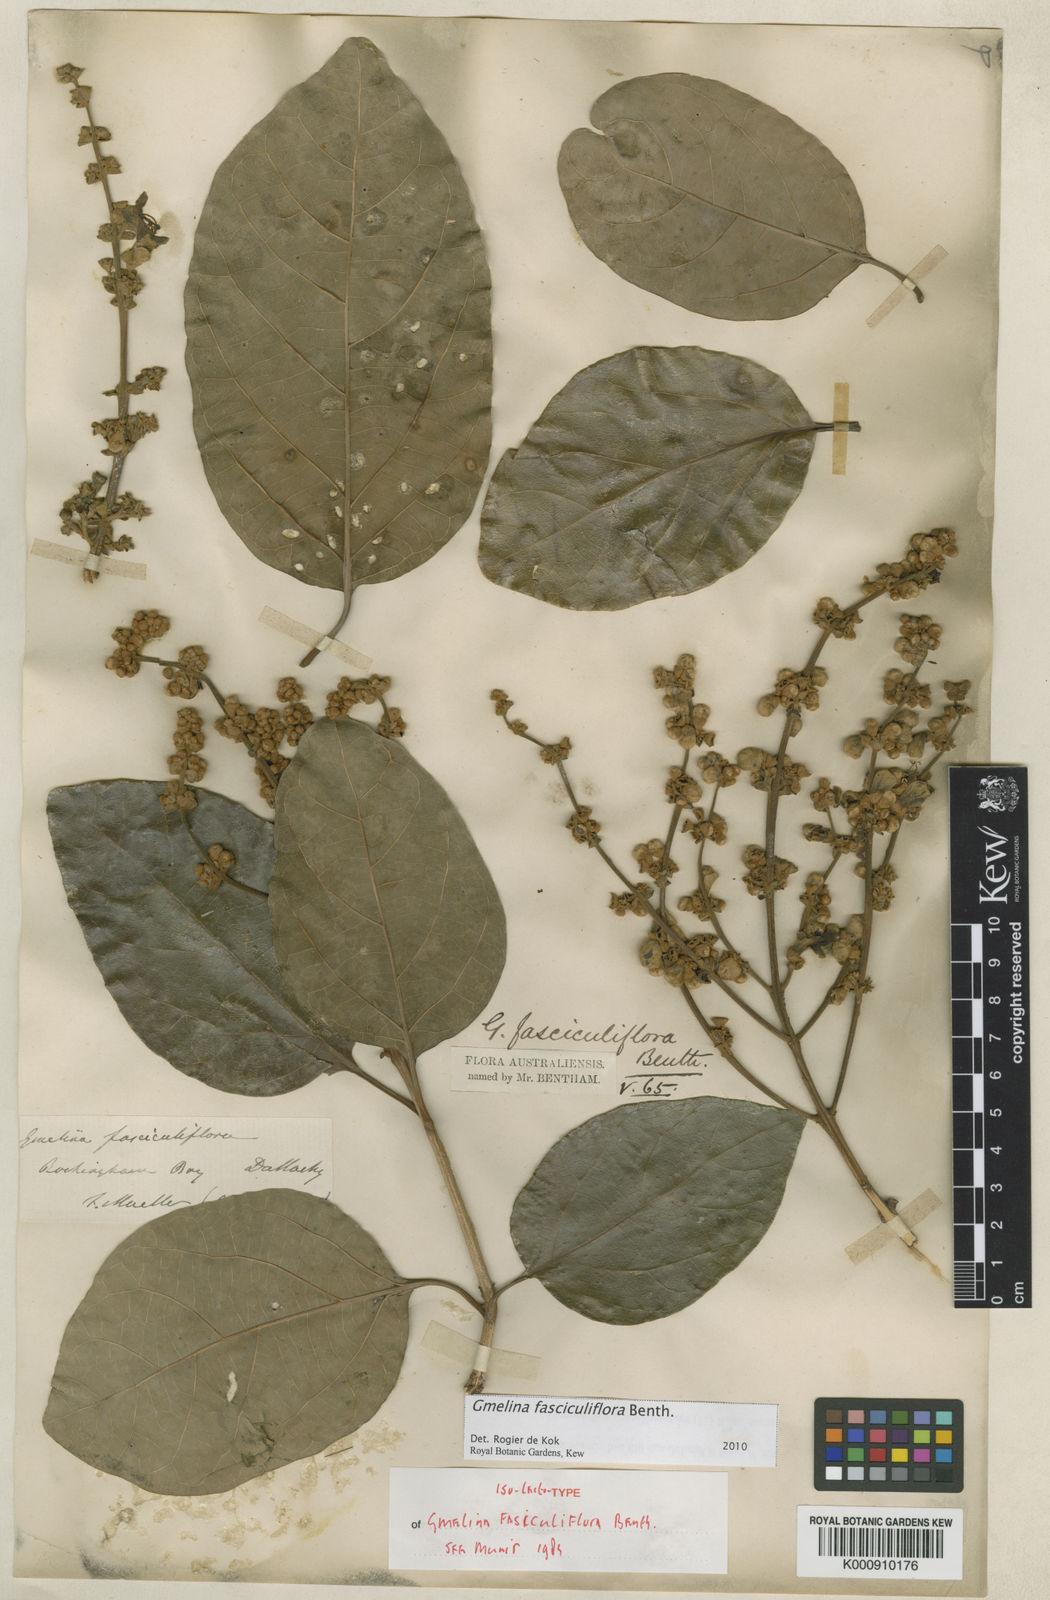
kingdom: Plantae
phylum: Tracheophyta
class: Magnoliopsida
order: Lamiales
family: Lamiaceae
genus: Gmelina
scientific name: Gmelina fasciculiflora
